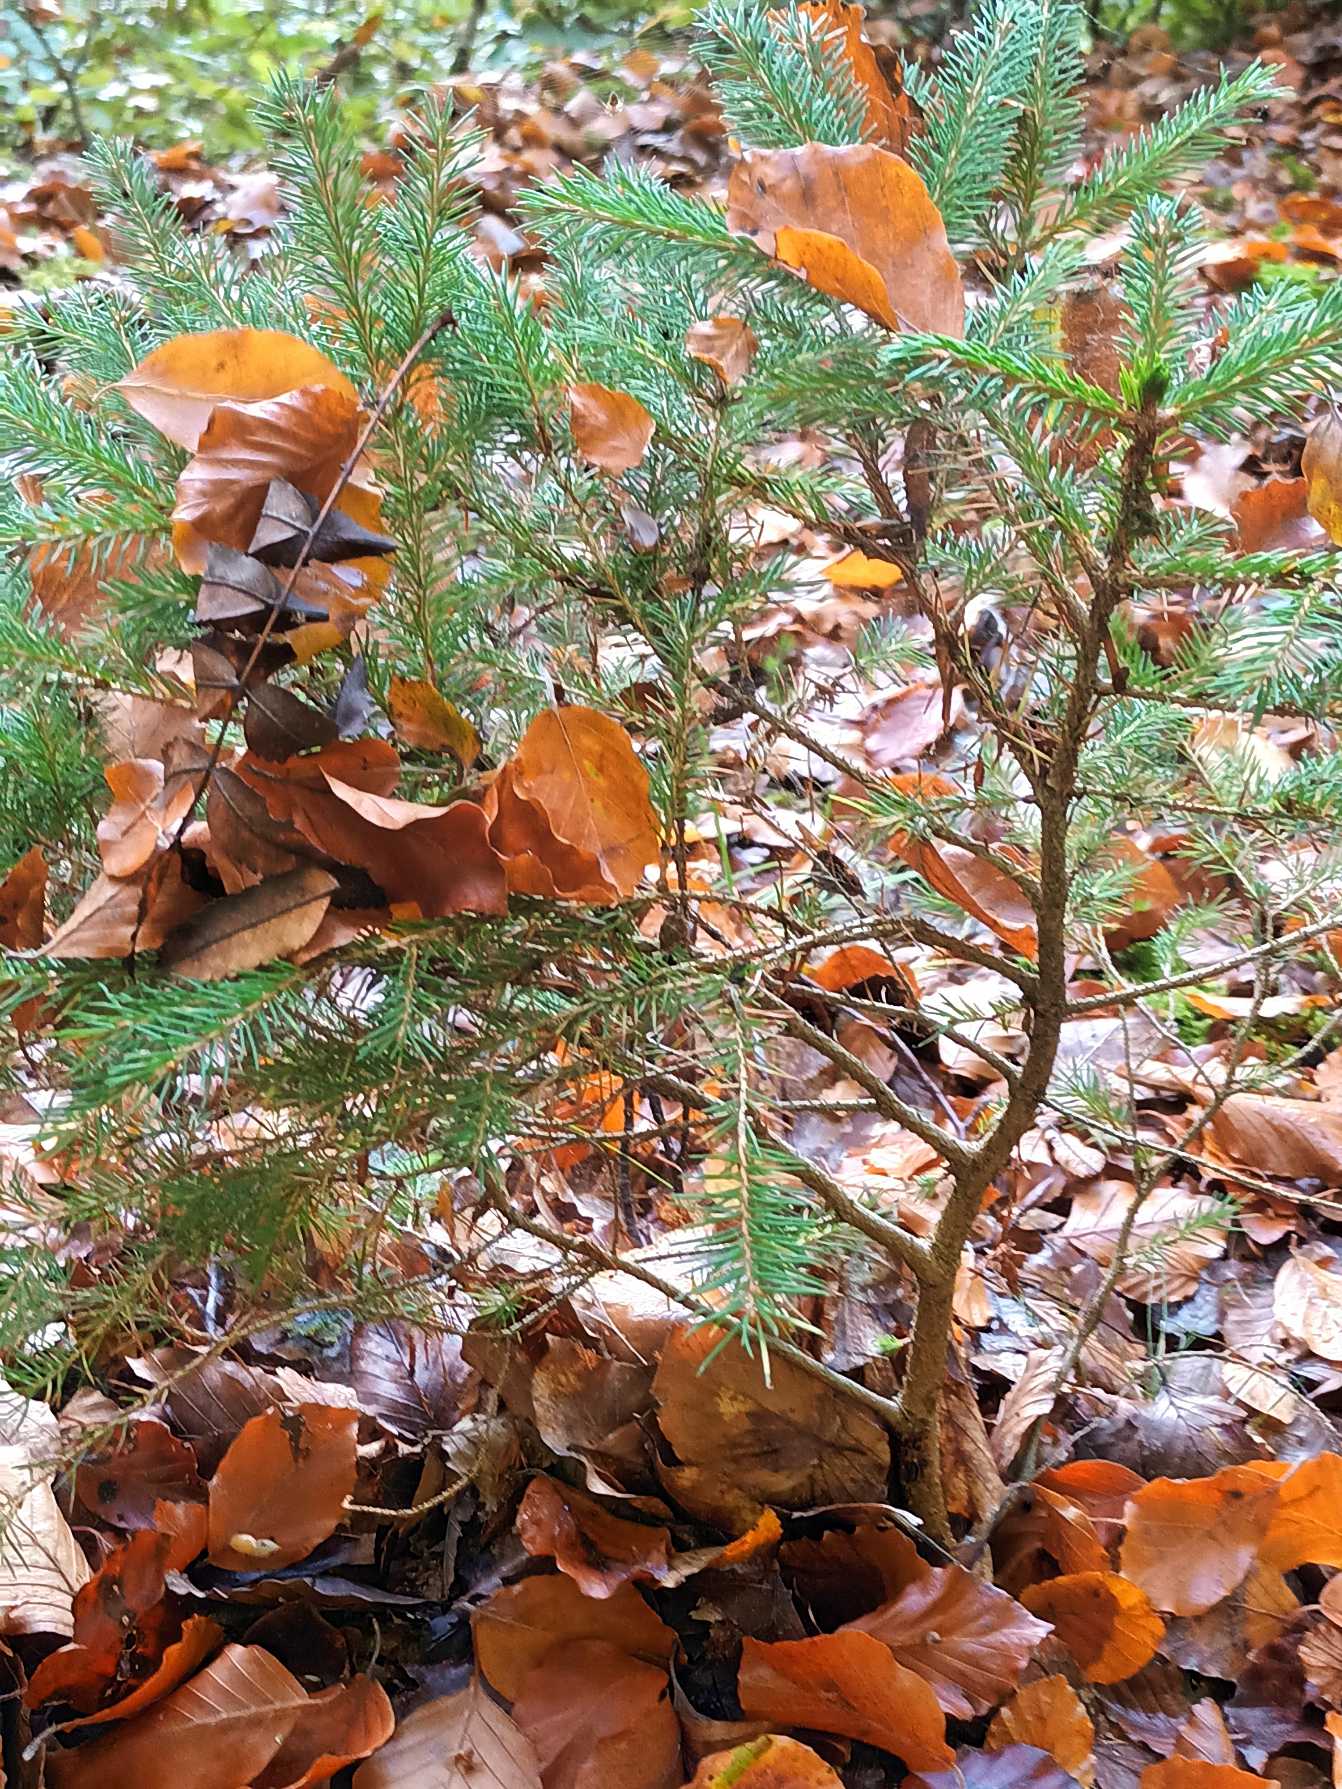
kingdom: Plantae
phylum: Tracheophyta
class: Pinopsida
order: Pinales
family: Pinaceae
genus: Picea
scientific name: Picea abies
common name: Rød-gran
